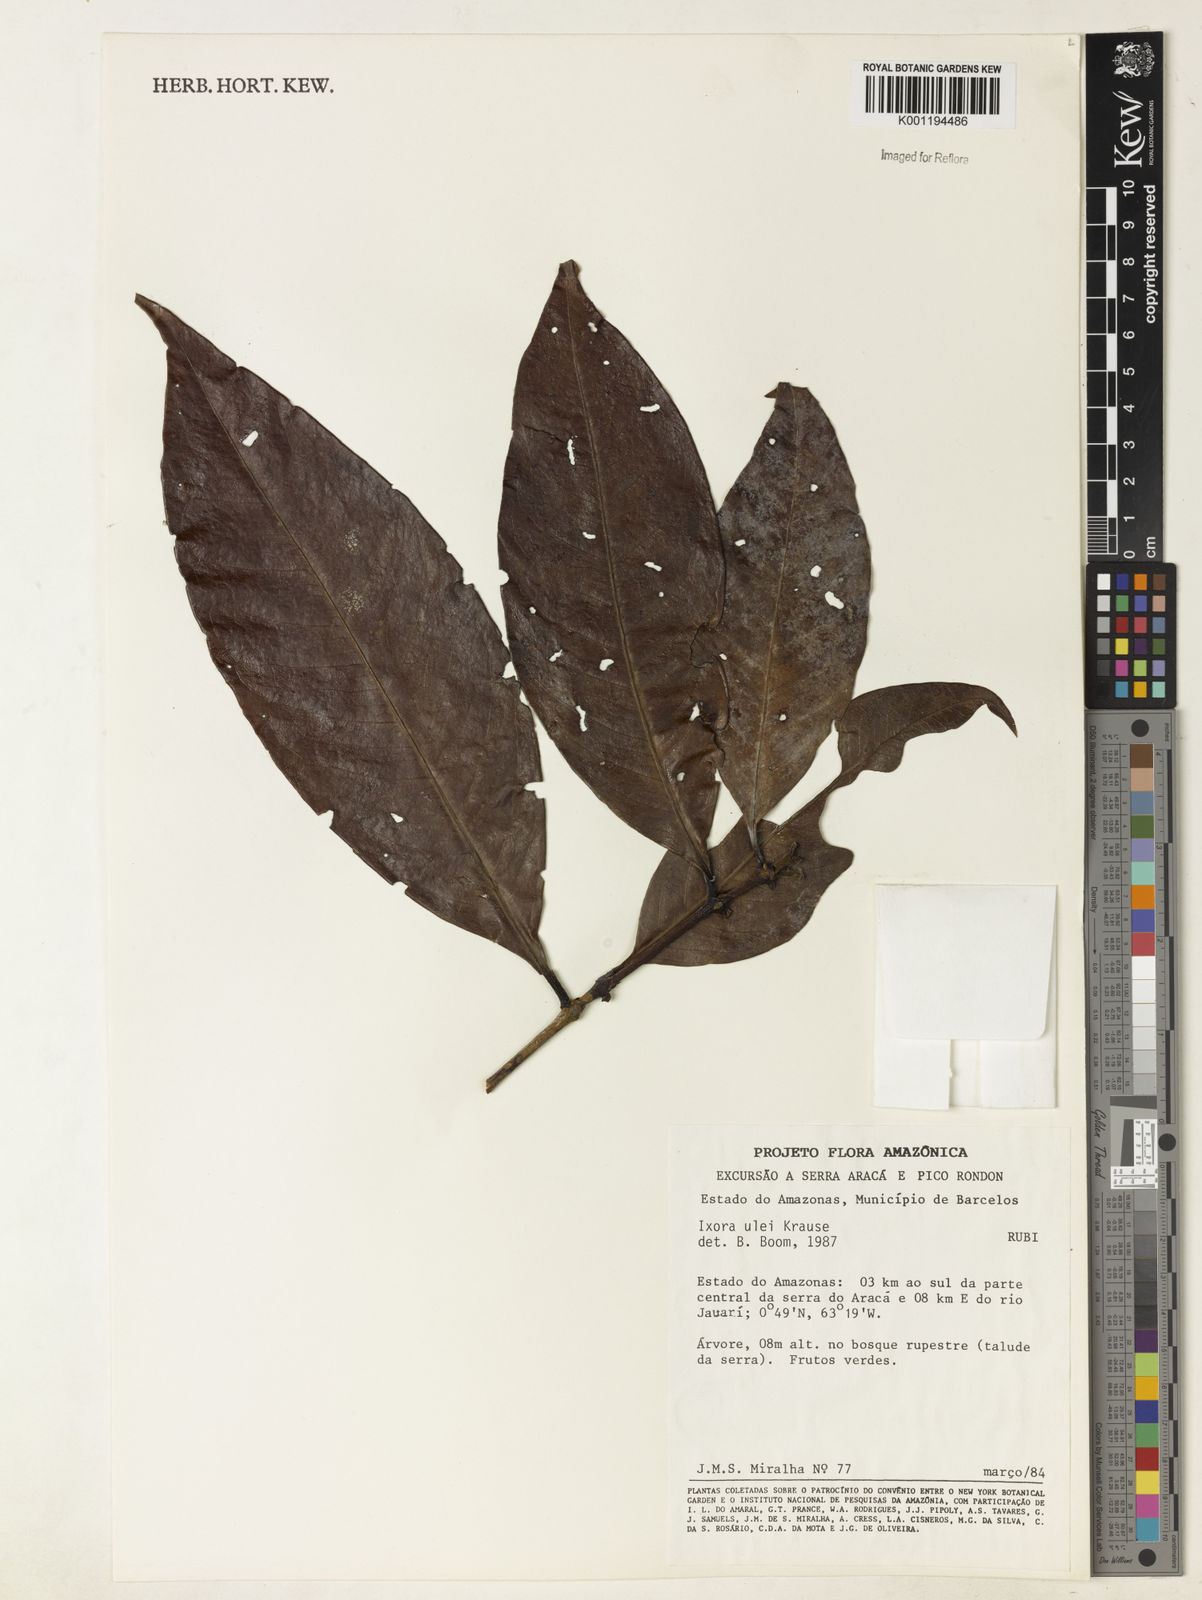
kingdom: Plantae
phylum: Tracheophyta
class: Magnoliopsida
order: Gentianales
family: Rubiaceae
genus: Ixora
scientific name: Ixora sparsifolia
